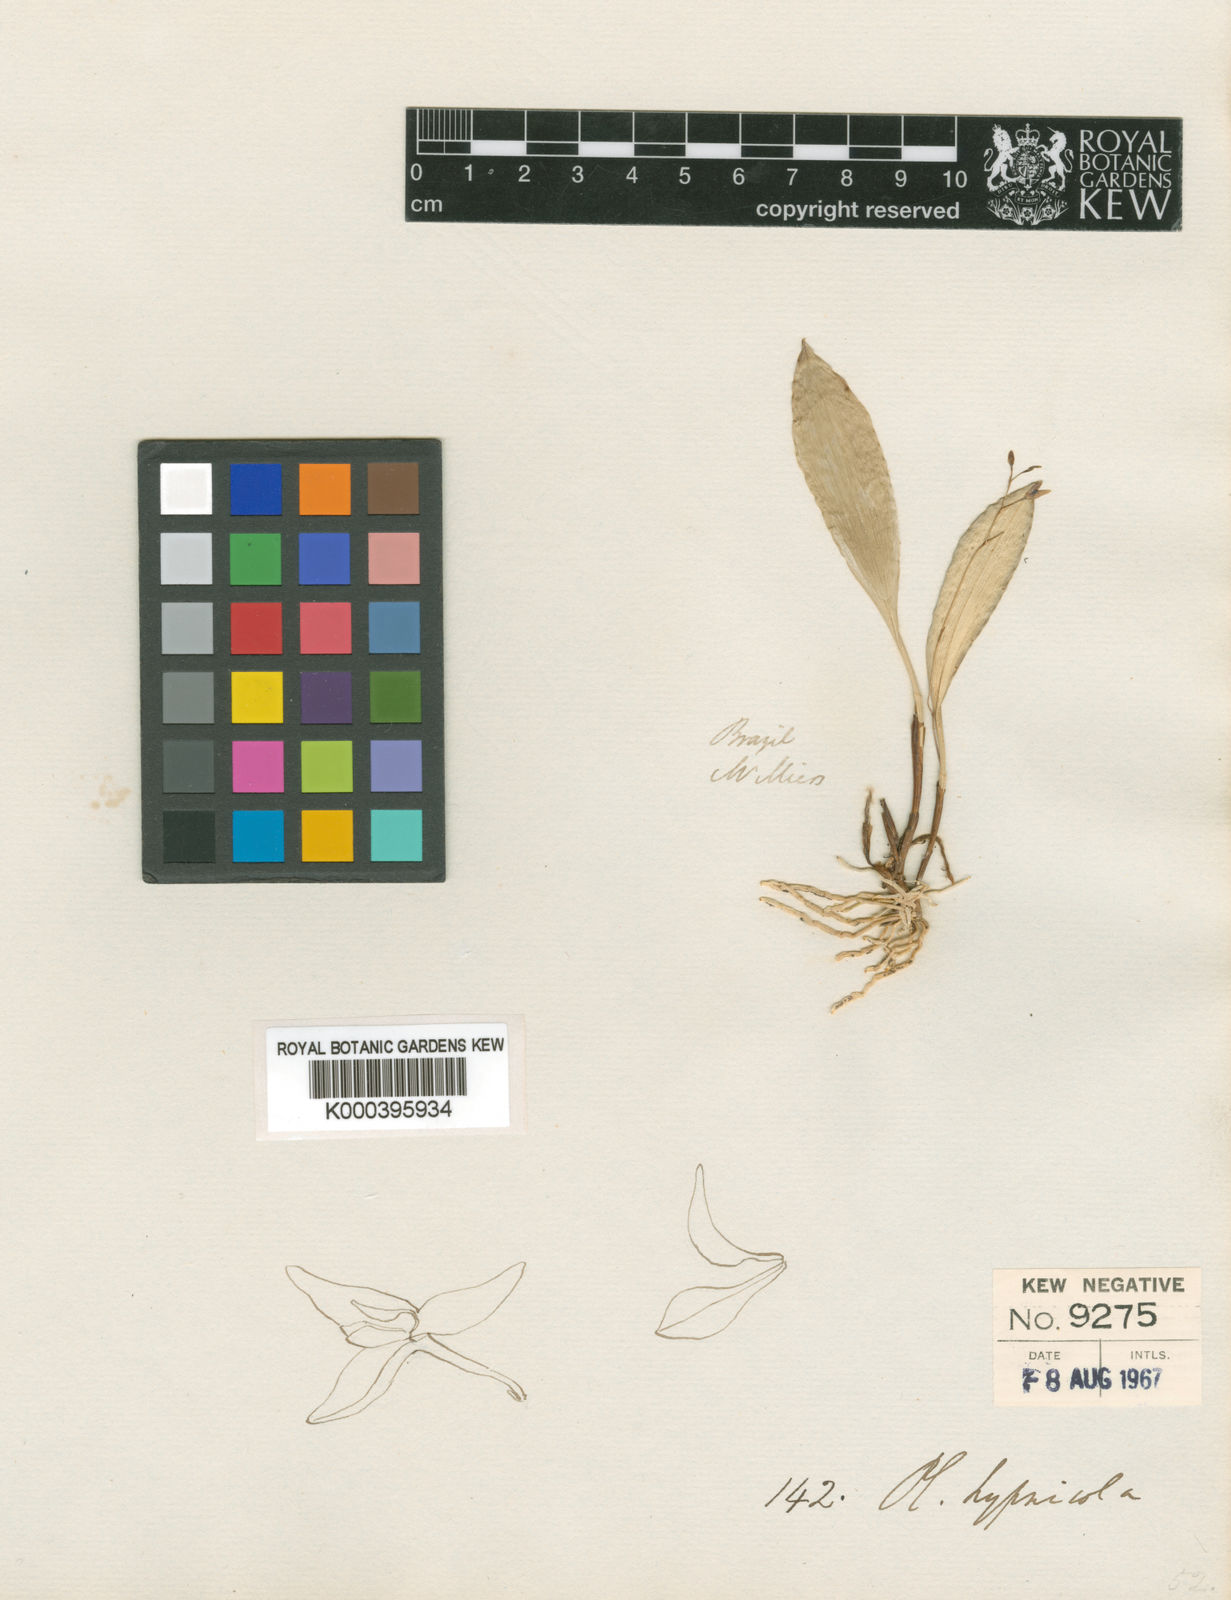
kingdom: Plantae
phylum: Tracheophyta
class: Liliopsida
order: Asparagales
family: Orchidaceae
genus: Pabstiella
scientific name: Pabstiella fusca
